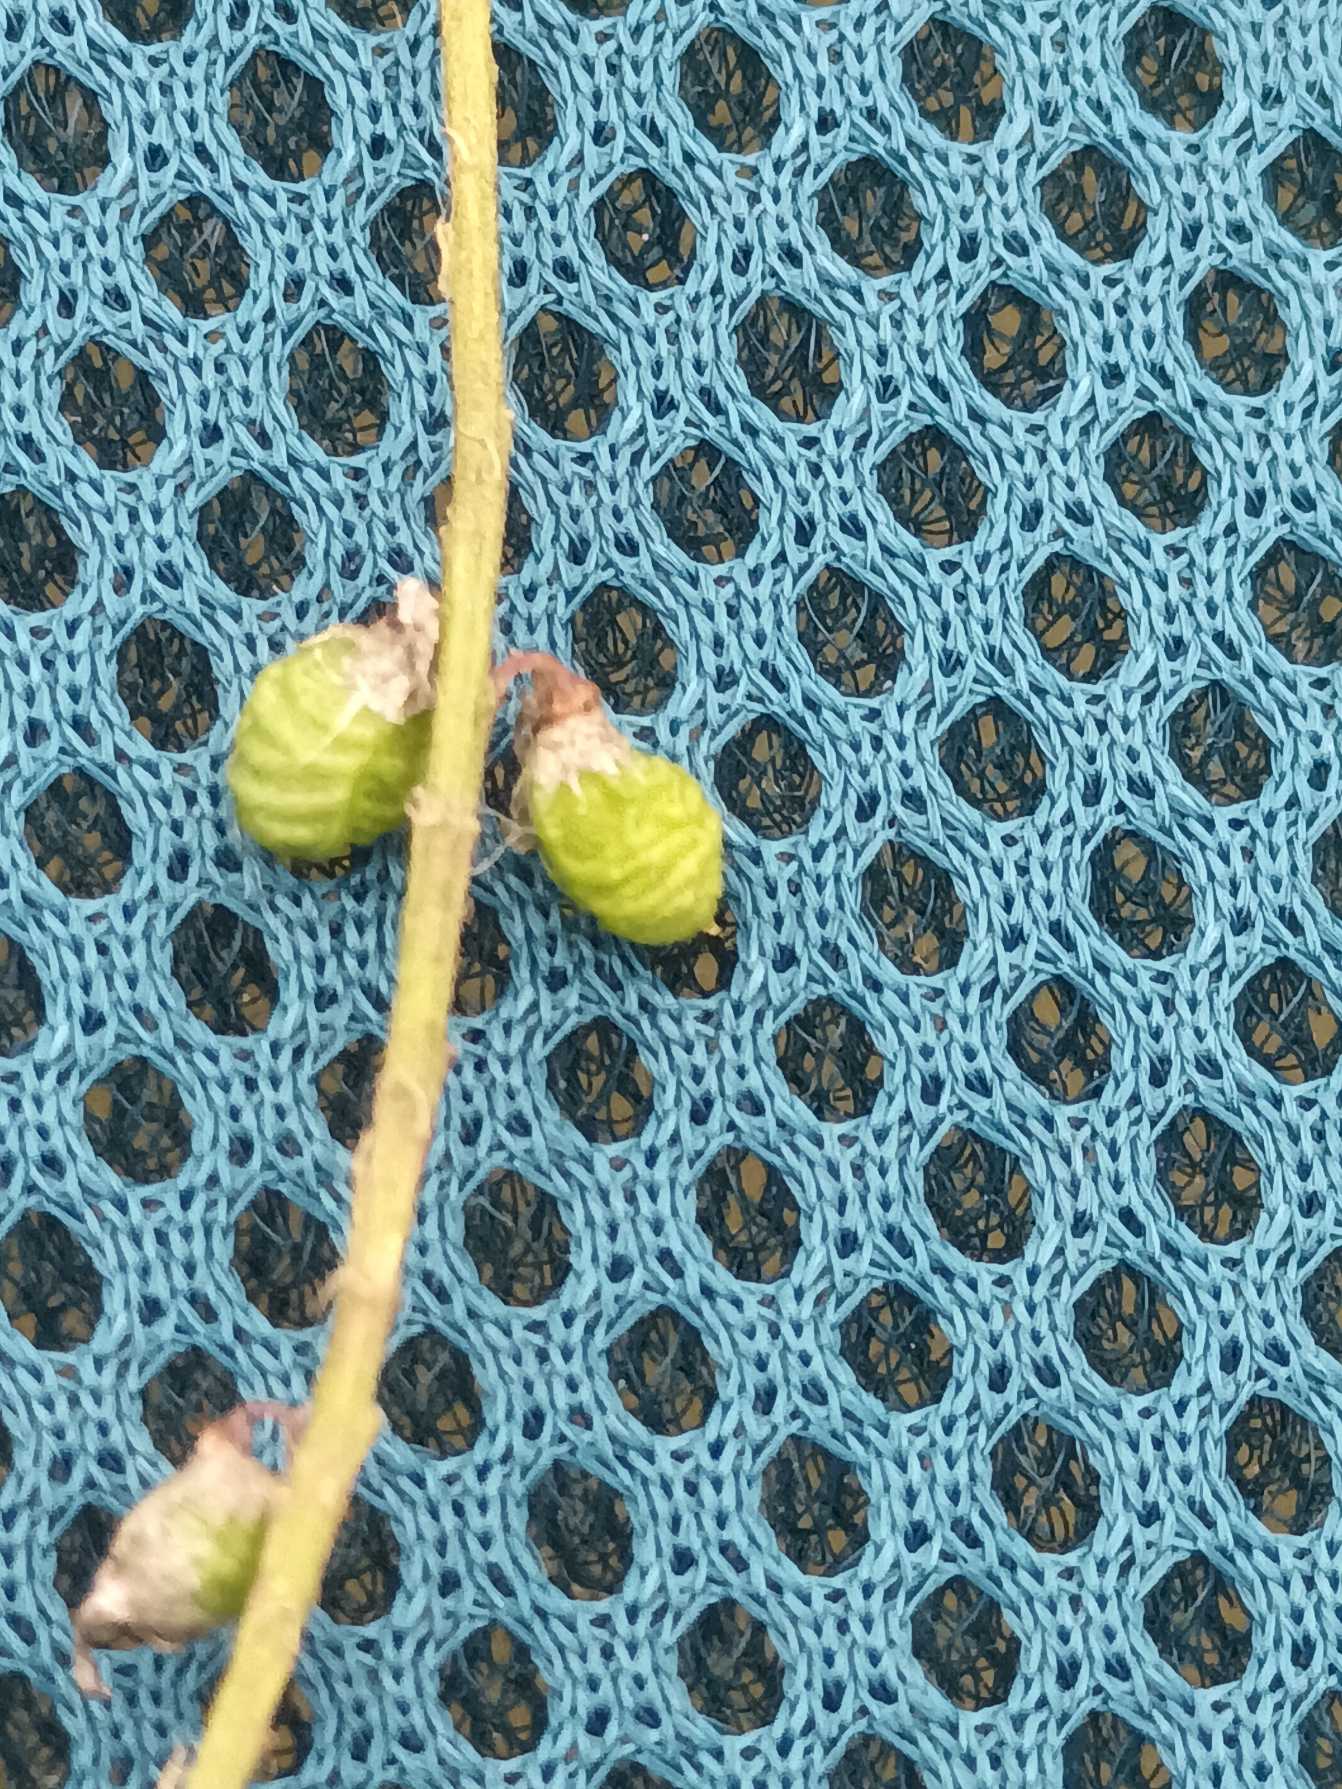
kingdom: Plantae
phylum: Tracheophyta
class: Magnoliopsida
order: Fabales
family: Fabaceae
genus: Melilotus
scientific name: Melilotus officinalis
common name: Mark-stenkløver
